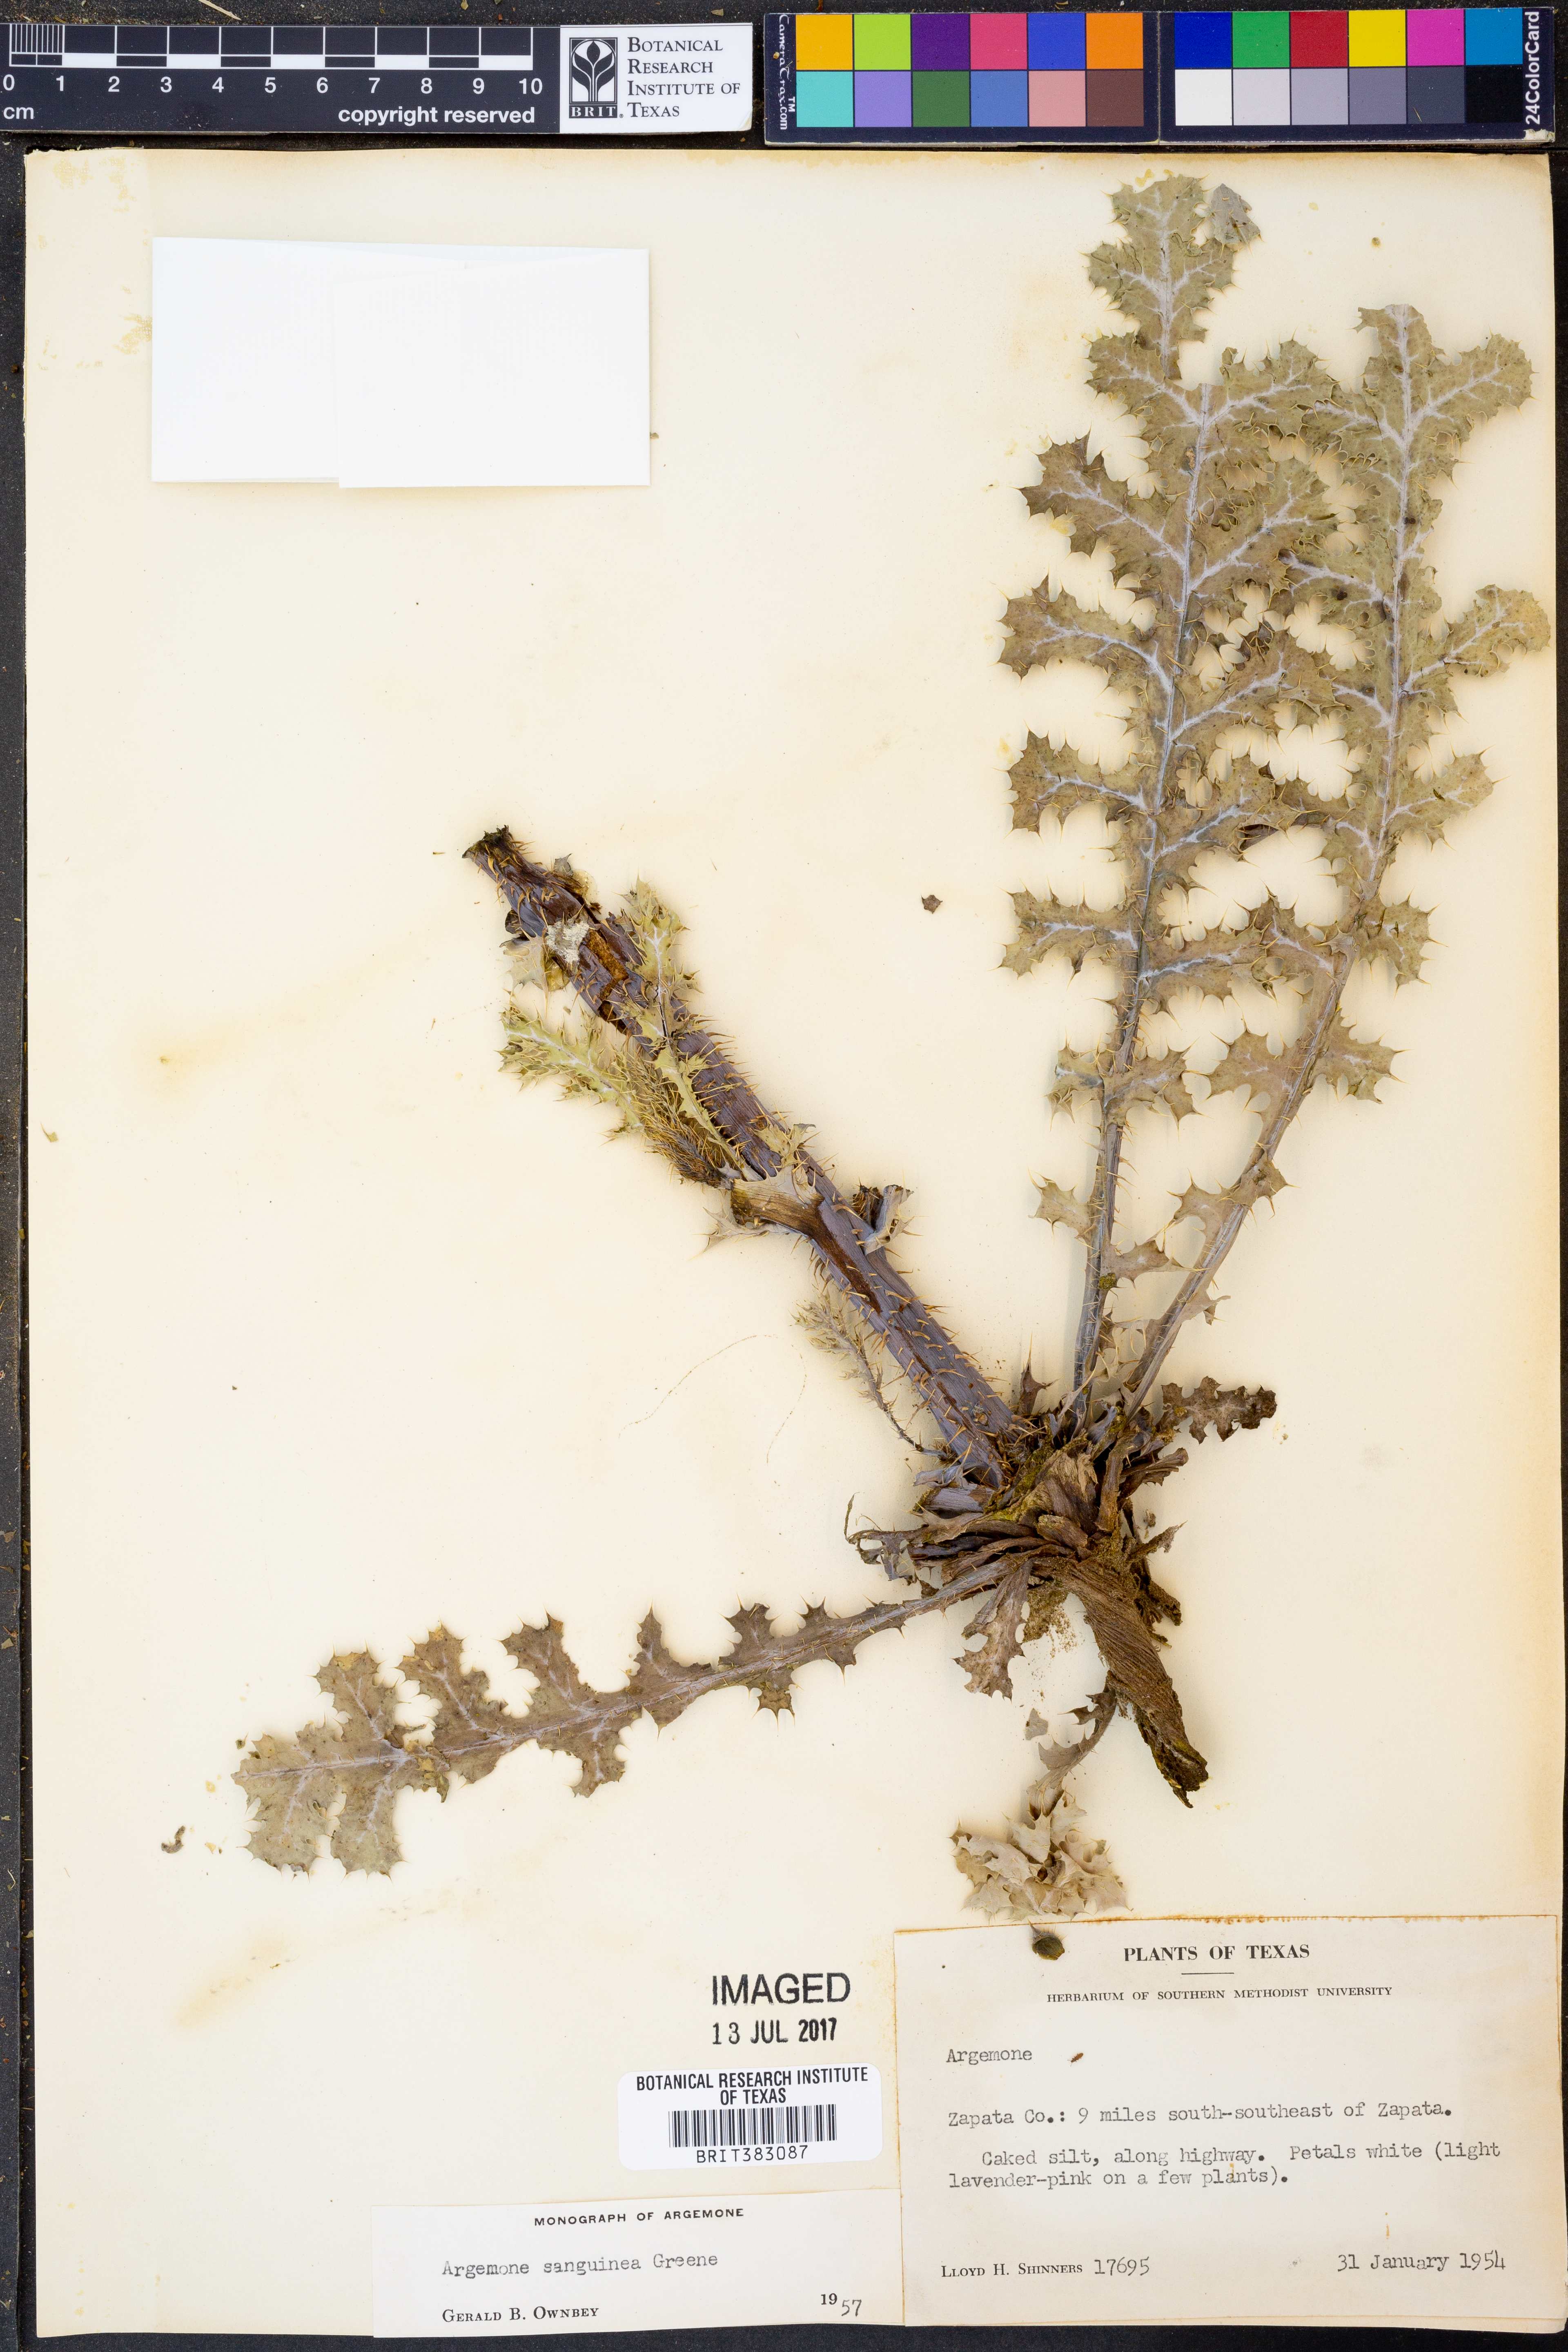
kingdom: Plantae
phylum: Tracheophyta
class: Magnoliopsida
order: Ranunculales
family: Papaveraceae
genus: Argemone
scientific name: Argemone sanguinea
